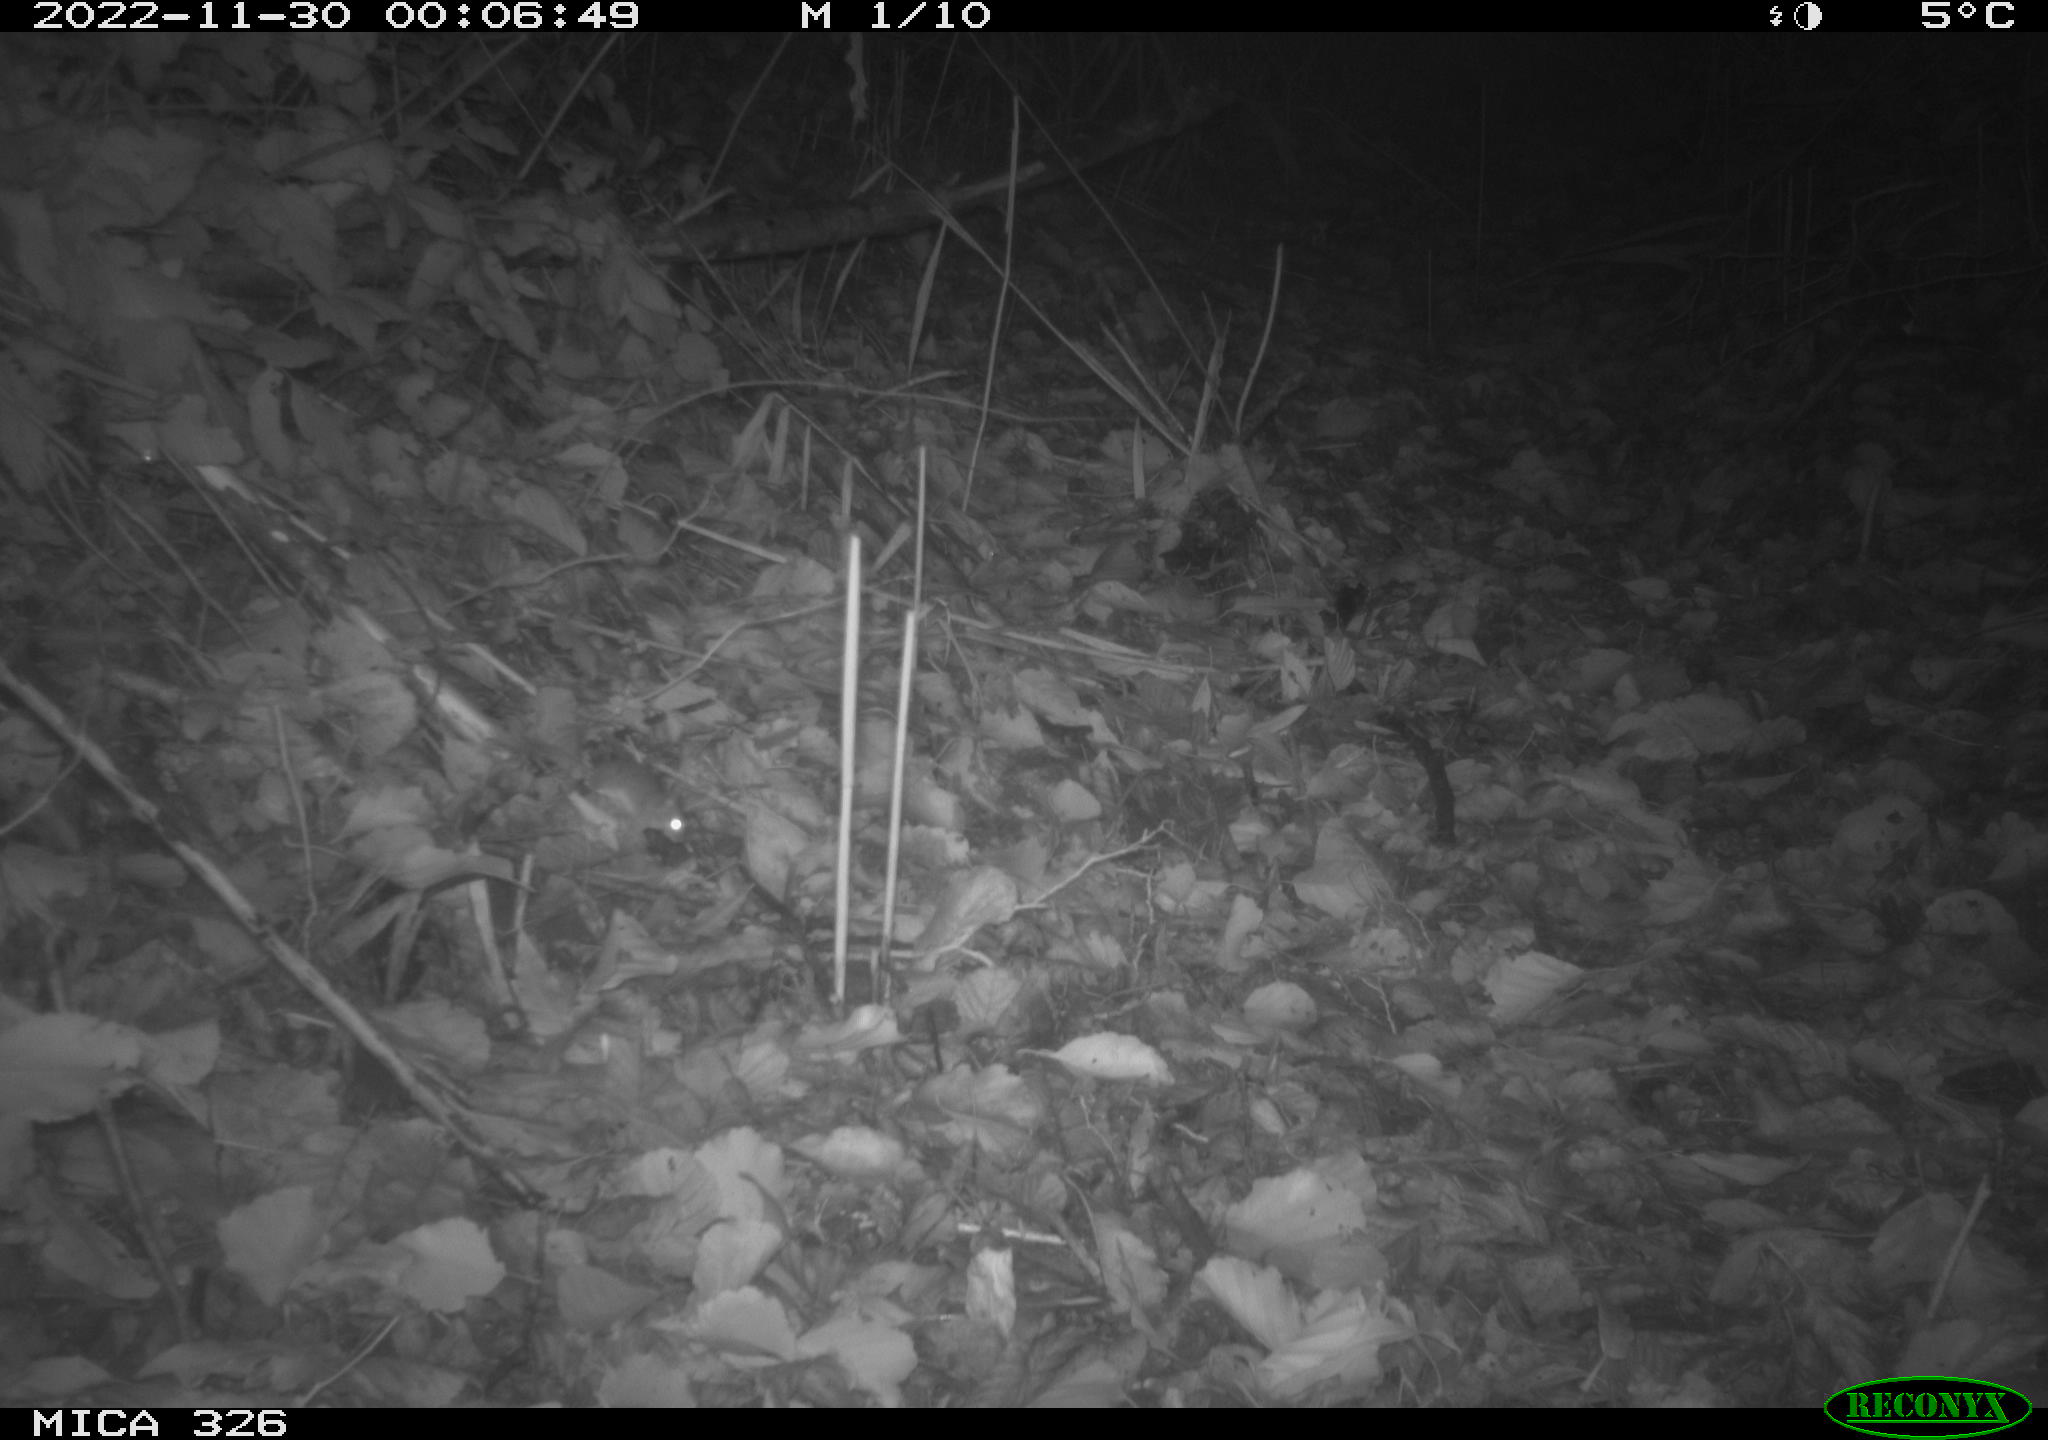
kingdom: Animalia
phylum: Chordata
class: Mammalia
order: Rodentia
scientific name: Rodentia
